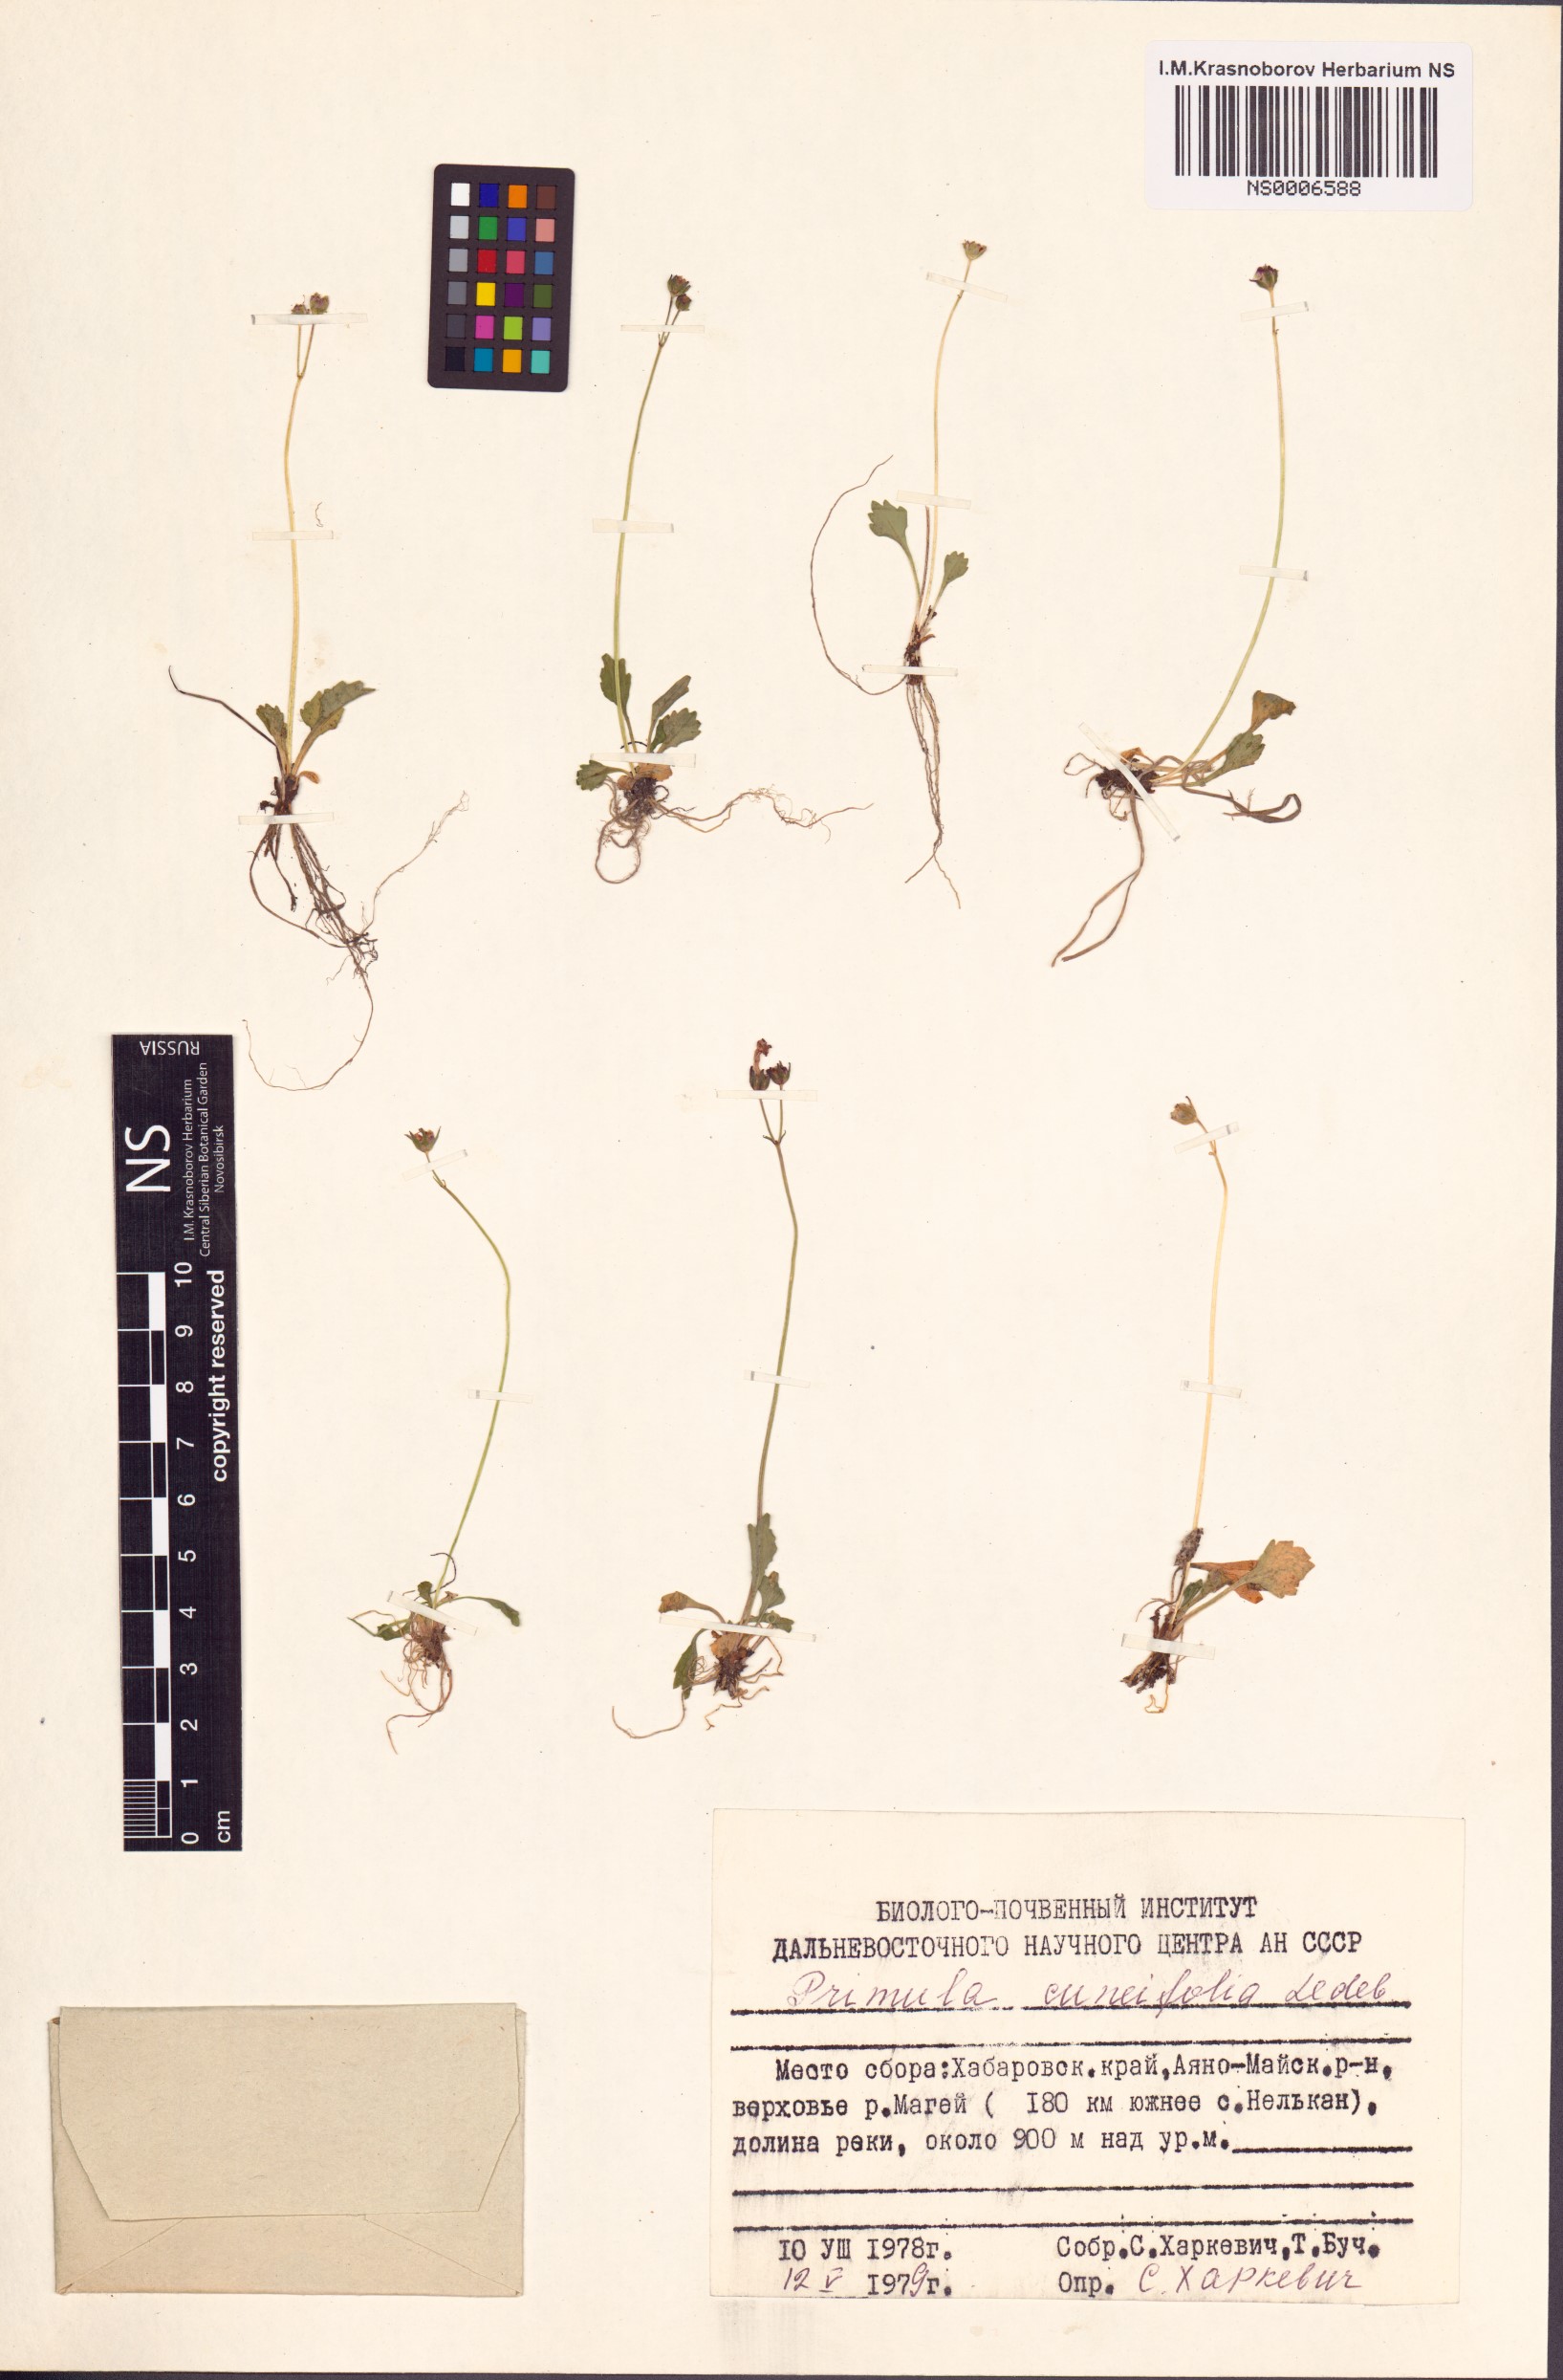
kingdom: Plantae
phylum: Tracheophyta
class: Magnoliopsida
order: Ericales
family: Primulaceae
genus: Primula
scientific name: Primula cuneifolia
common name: Wedge-leaved primrose
